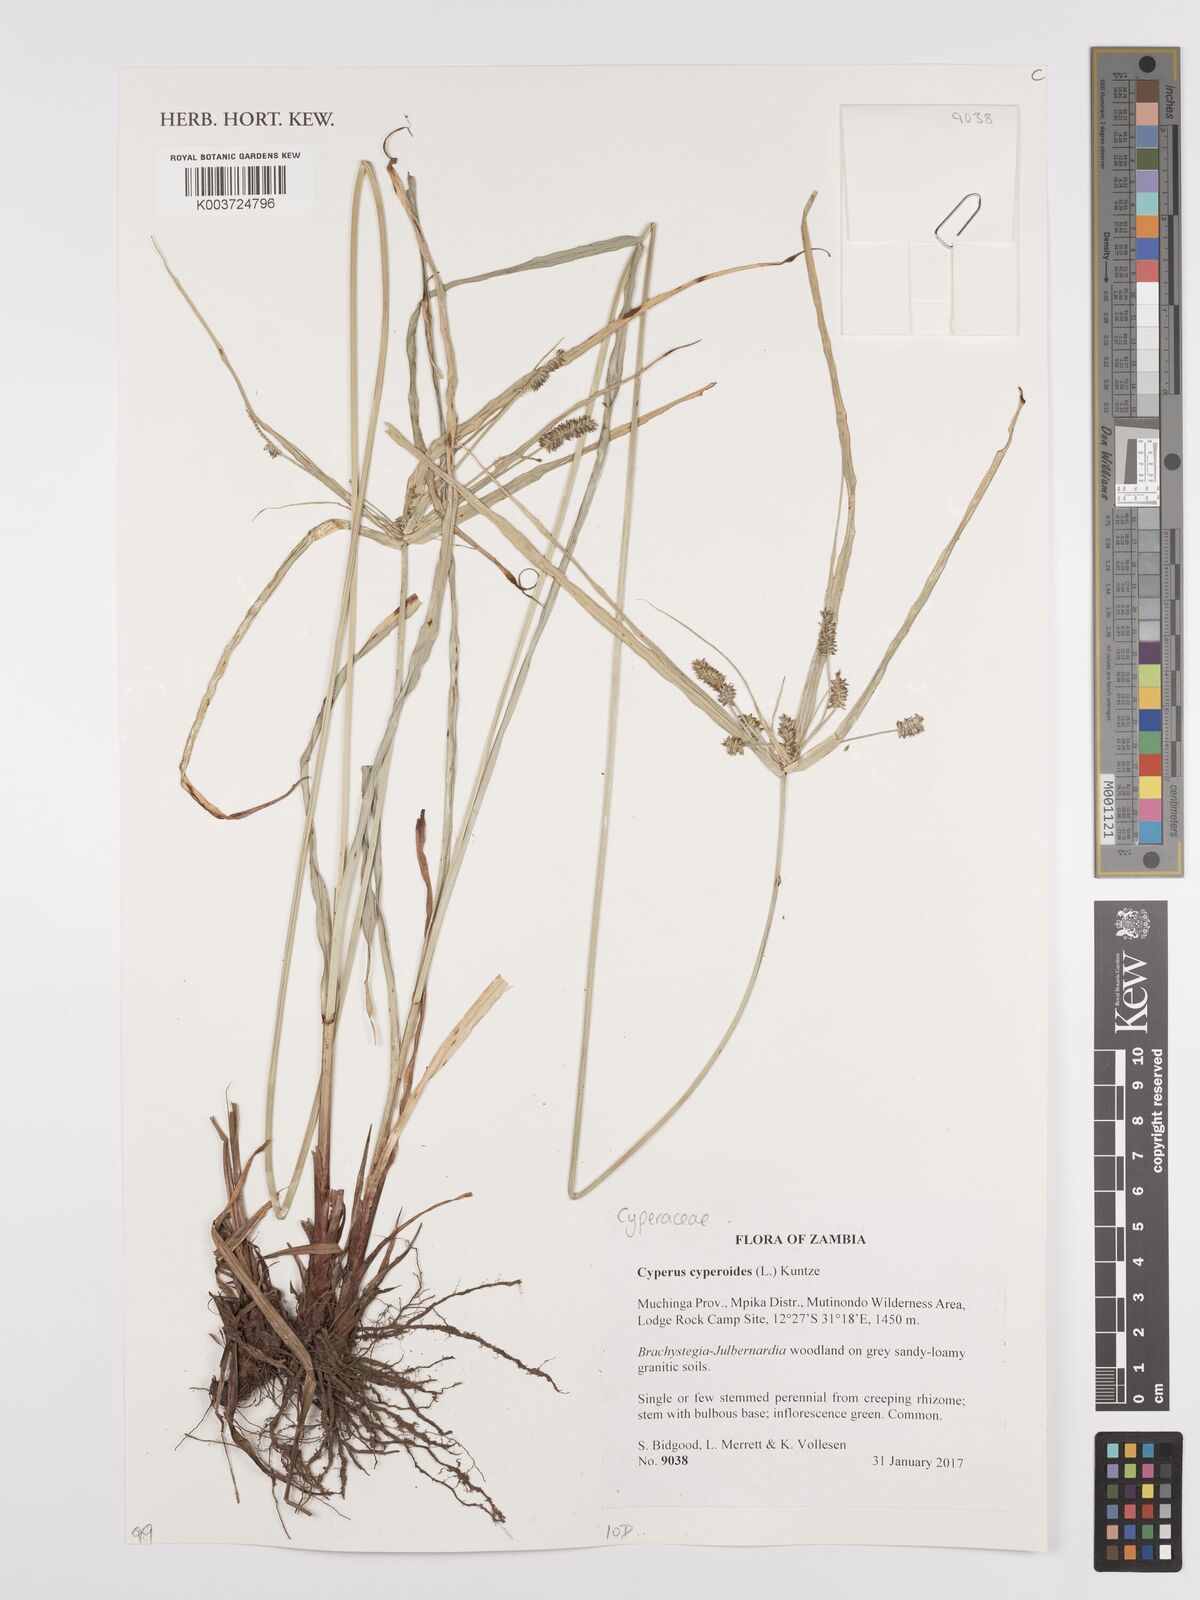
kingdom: Plantae
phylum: Tracheophyta
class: Liliopsida
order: Poales
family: Cyperaceae
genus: Cyperus
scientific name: Cyperus cyperoides
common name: Pacific island flat sedge
